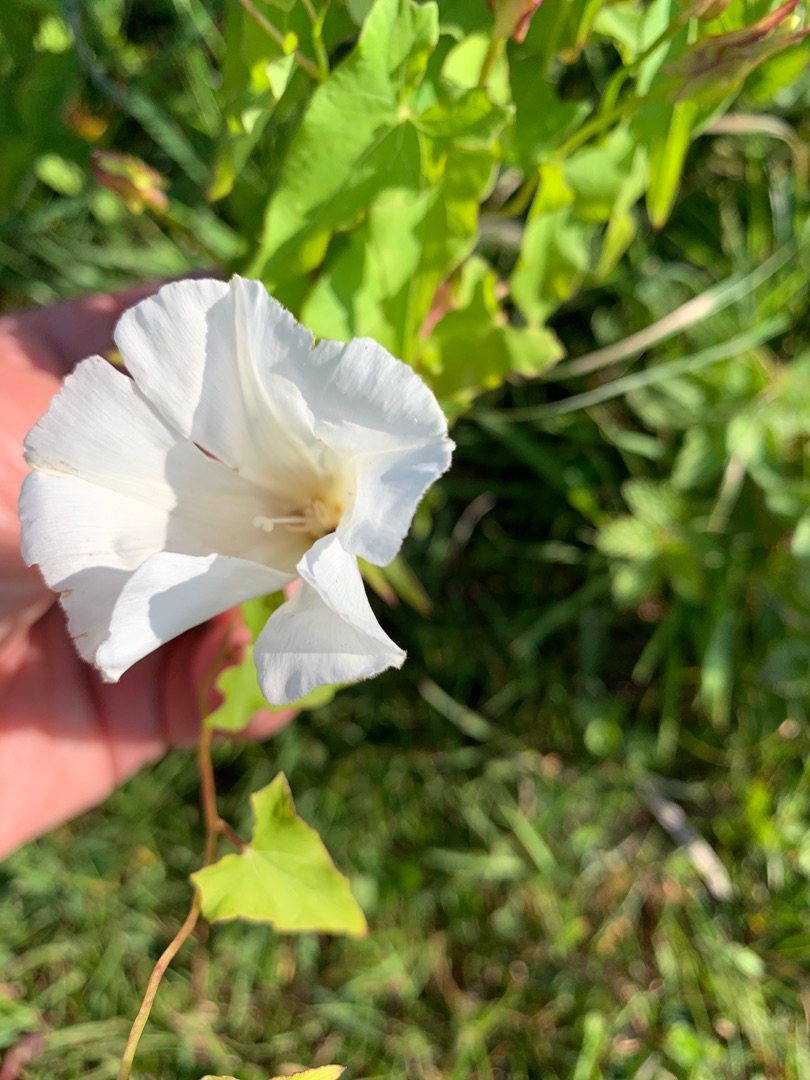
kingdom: Plantae
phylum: Tracheophyta
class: Magnoliopsida
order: Solanales
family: Convolvulaceae
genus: Calystegia
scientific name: Calystegia sepium
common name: Gærde-snerle
